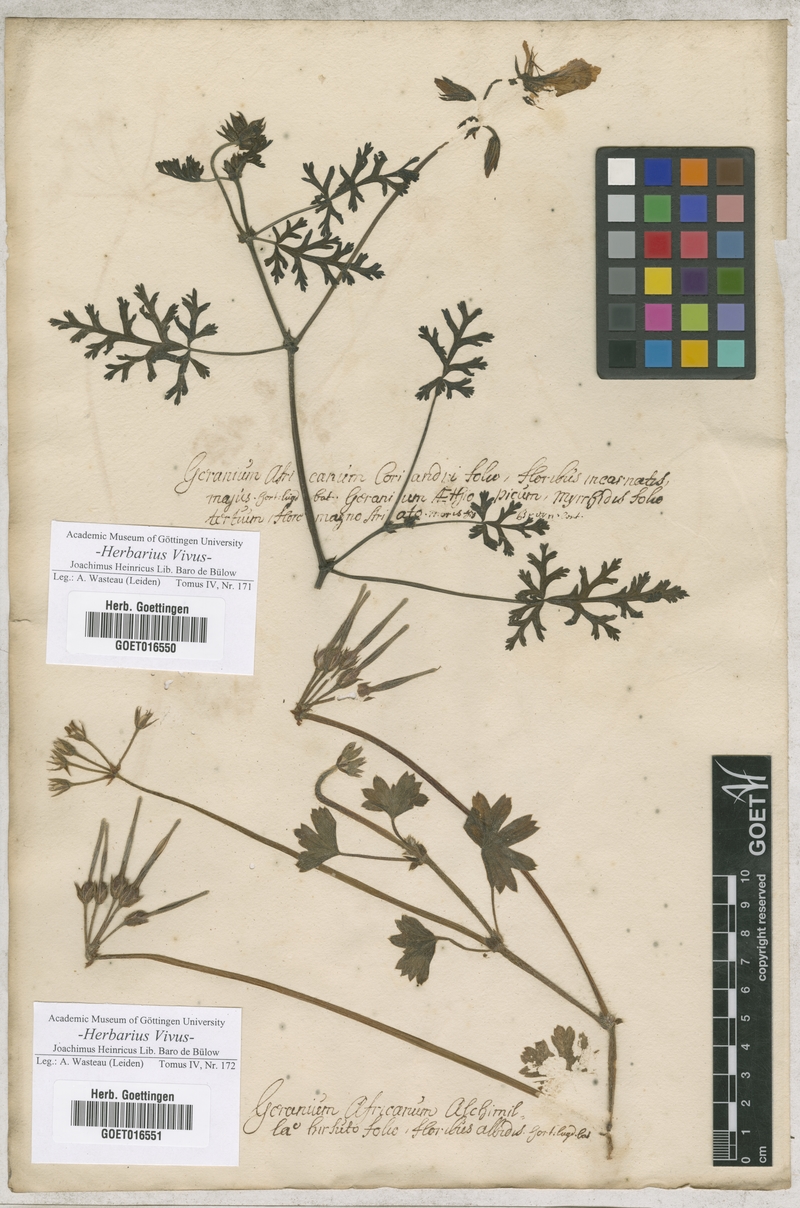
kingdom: Plantae
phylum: Tracheophyta
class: Magnoliopsida
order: Geraniales
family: Geraniaceae
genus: Pelargonium
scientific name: Pelargonium myrrhifolium
